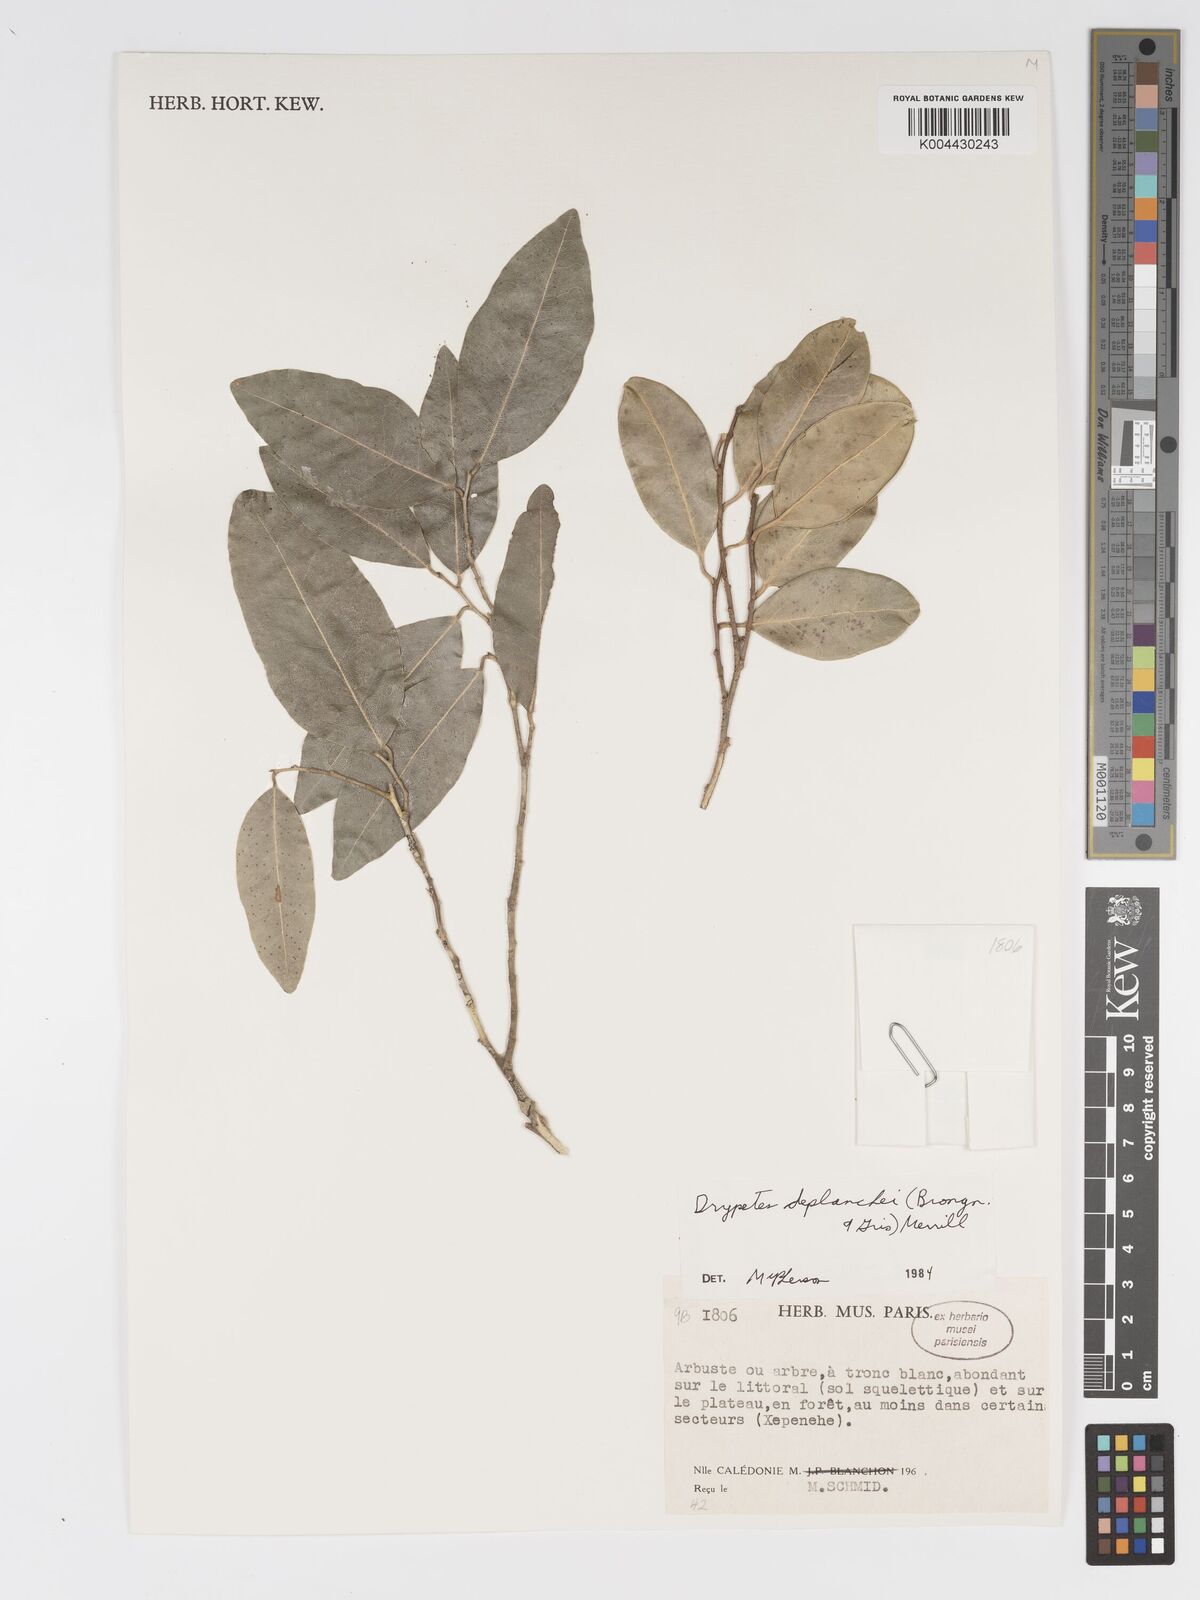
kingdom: Plantae
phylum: Tracheophyta
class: Magnoliopsida
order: Malpighiales
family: Putranjivaceae
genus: Drypetes
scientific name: Drypetes deplanchei
